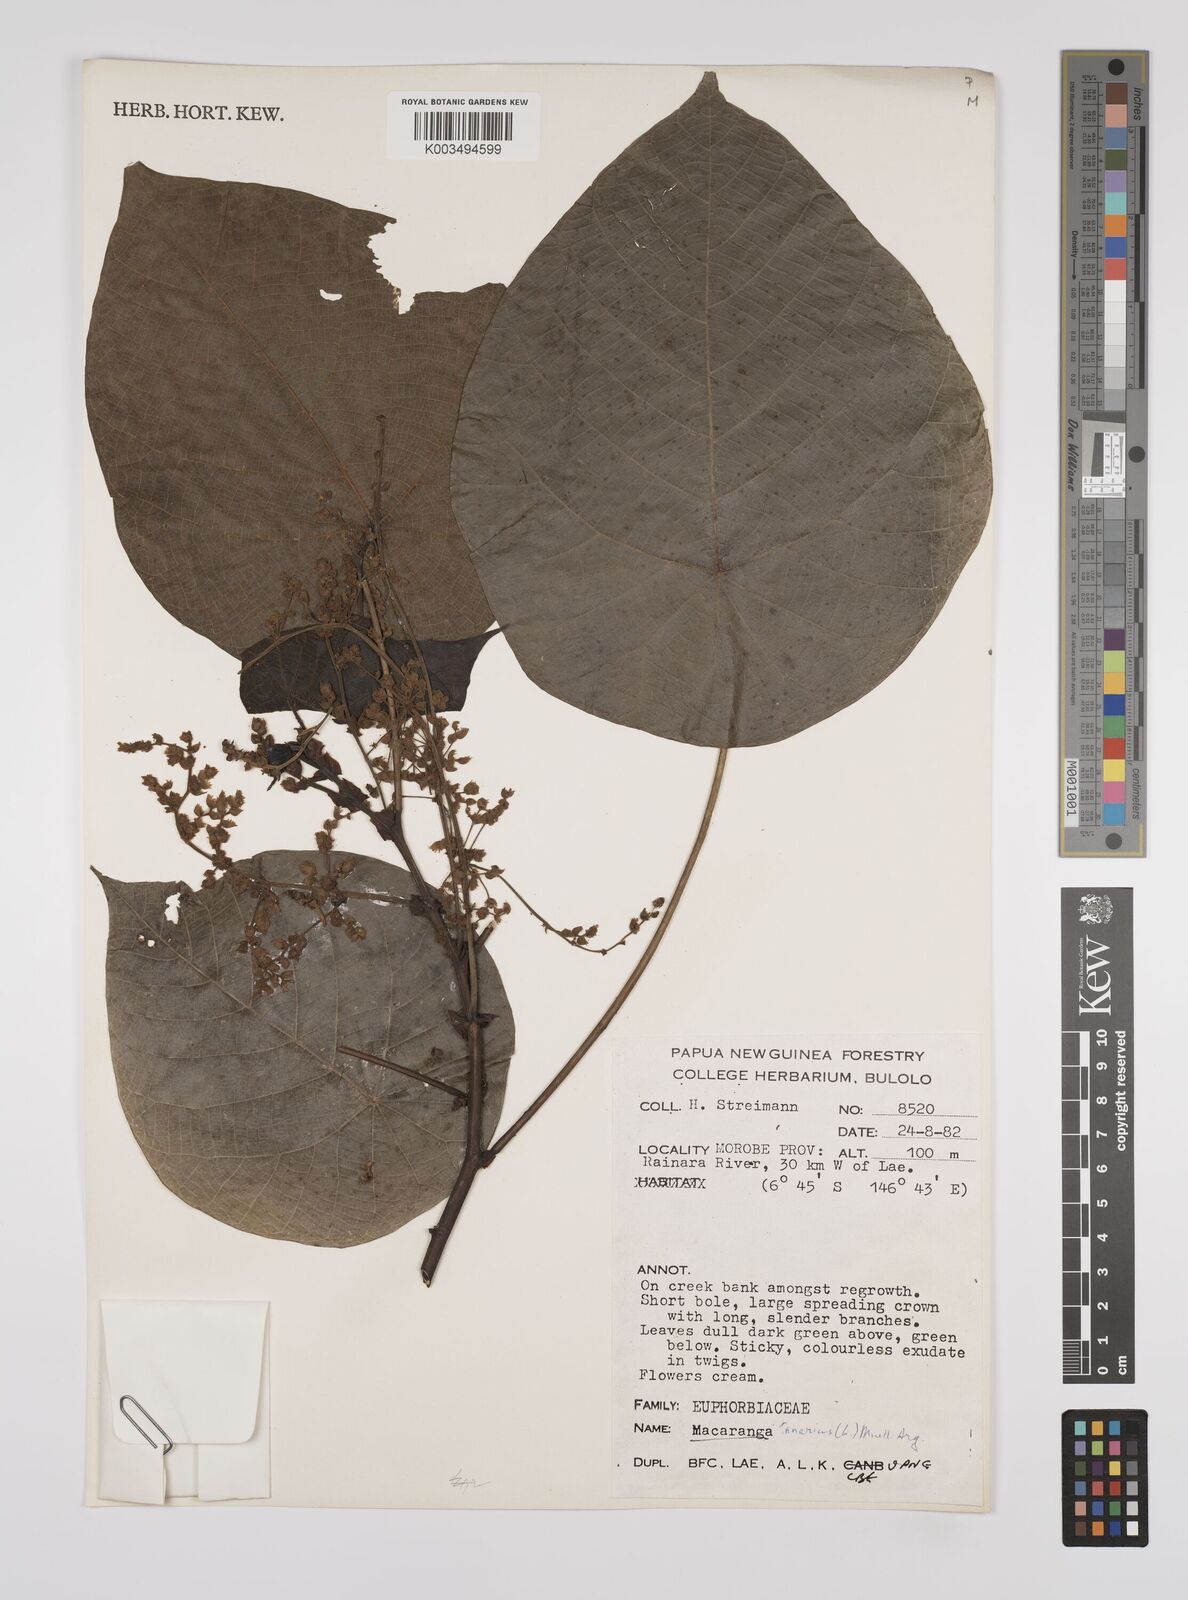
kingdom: Plantae
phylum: Tracheophyta
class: Magnoliopsida
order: Malpighiales
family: Euphorbiaceae
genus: Macaranga
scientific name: Macaranga tanarius
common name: Parasol leaf tree
